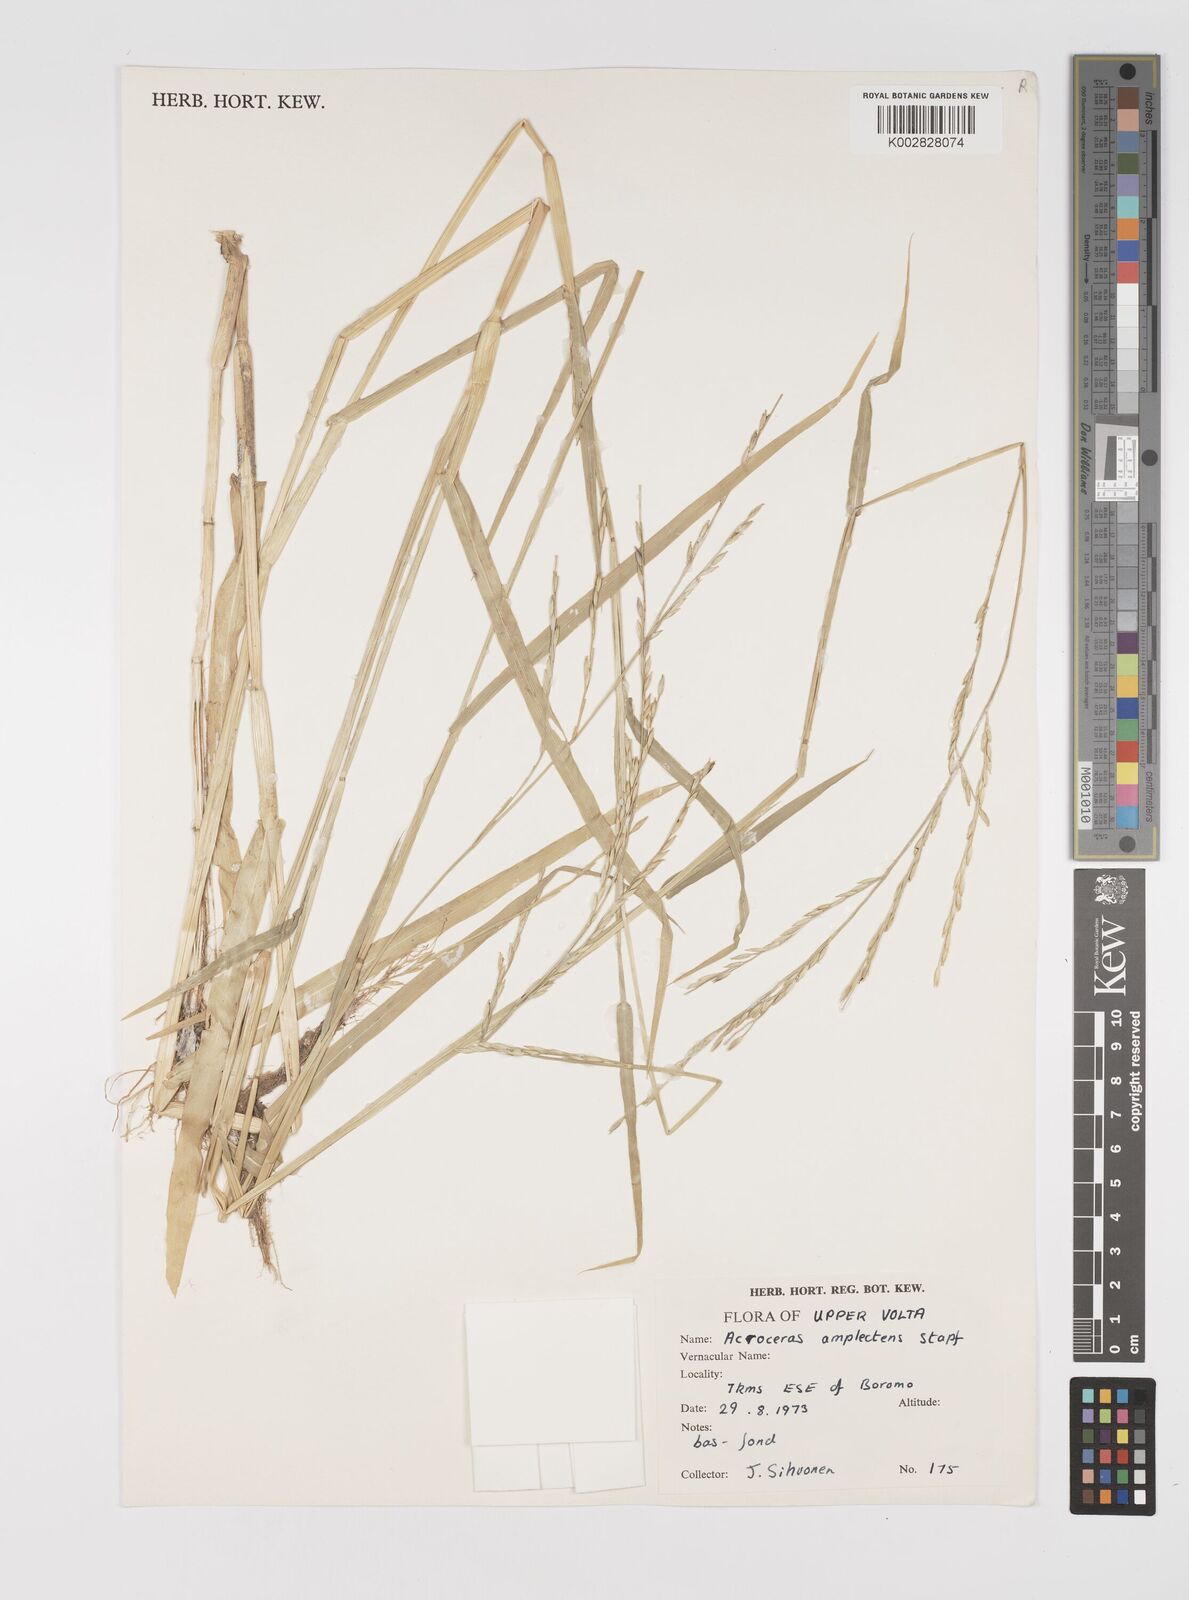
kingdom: Plantae
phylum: Tracheophyta
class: Liliopsida
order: Poales
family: Poaceae
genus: Acroceras
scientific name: Acroceras amplectens
